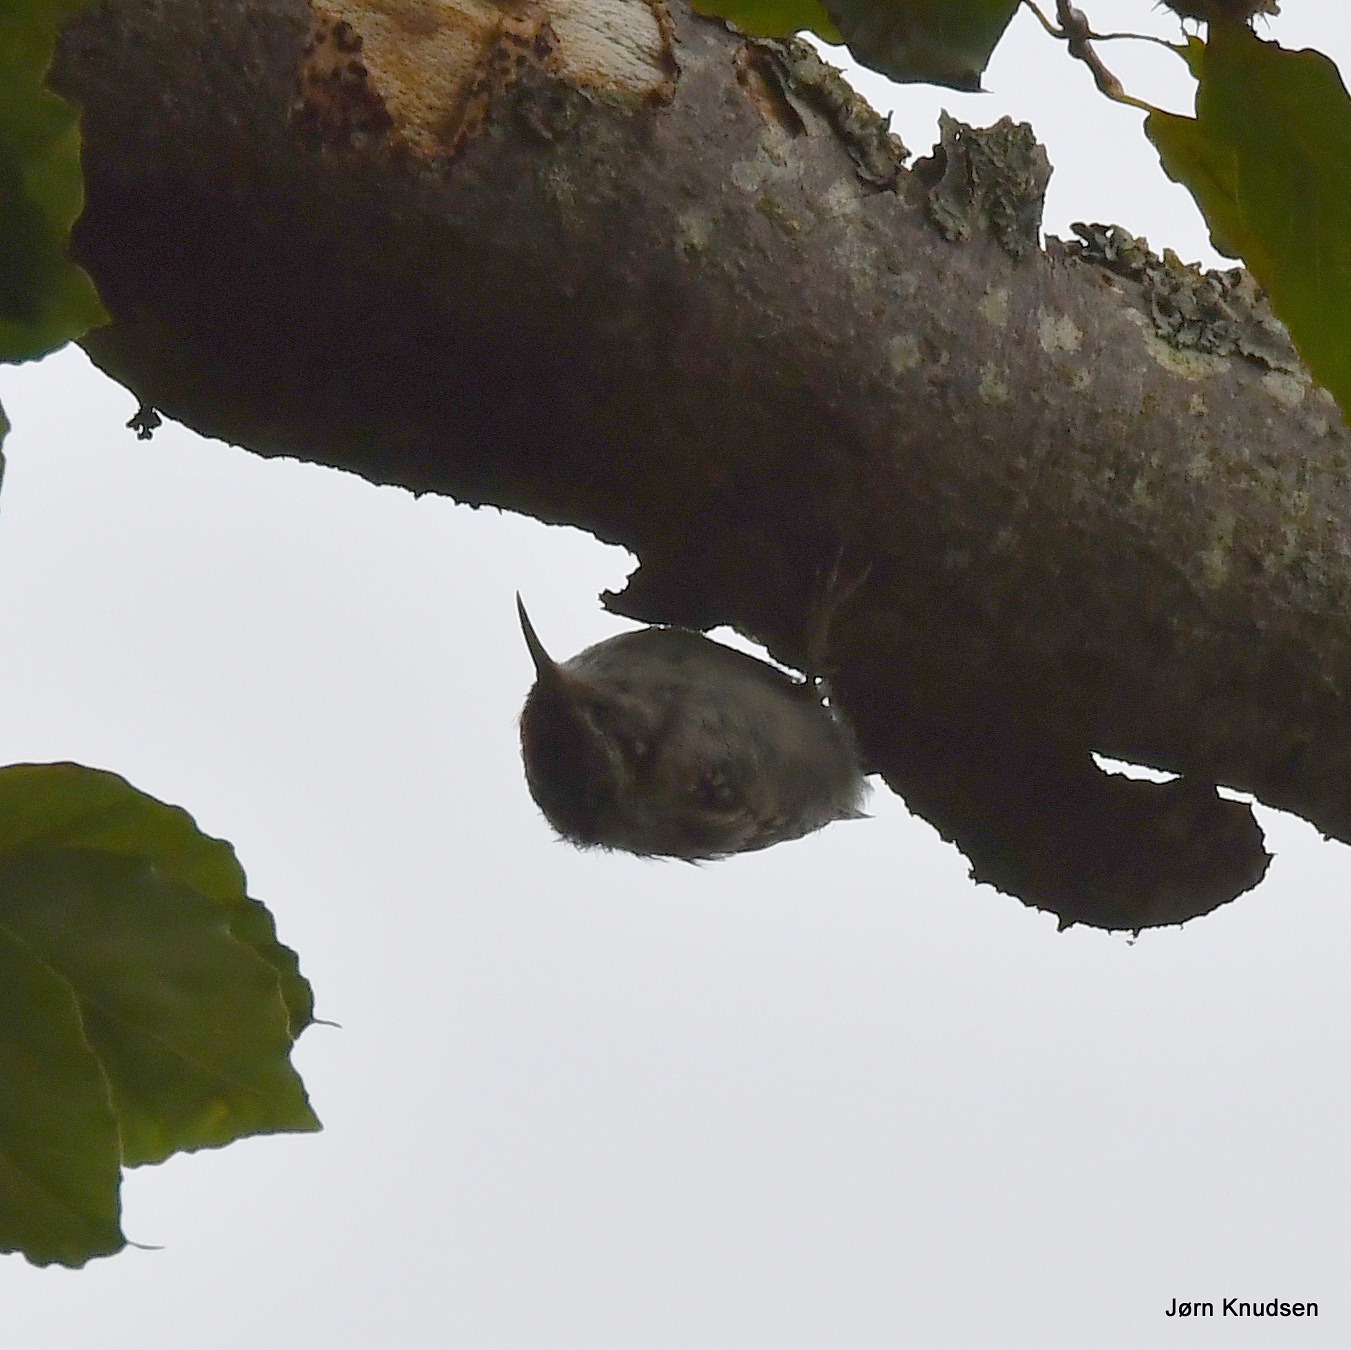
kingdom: Animalia
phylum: Chordata
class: Aves
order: Passeriformes
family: Certhiidae
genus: Certhia
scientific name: Certhia familiaris
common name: Træløber
